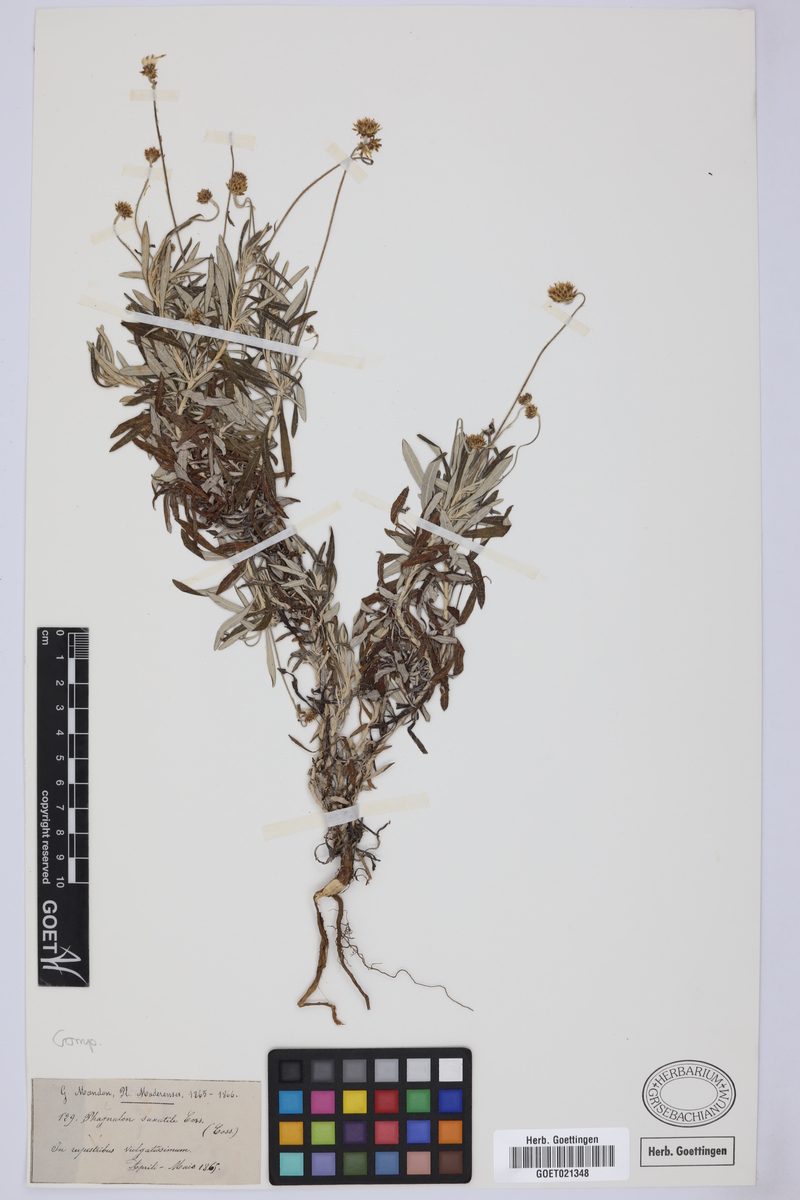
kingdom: Plantae
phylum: Tracheophyta
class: Magnoliopsida
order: Asterales
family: Asteraceae
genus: Phagnalon
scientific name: Phagnalon saxatile
